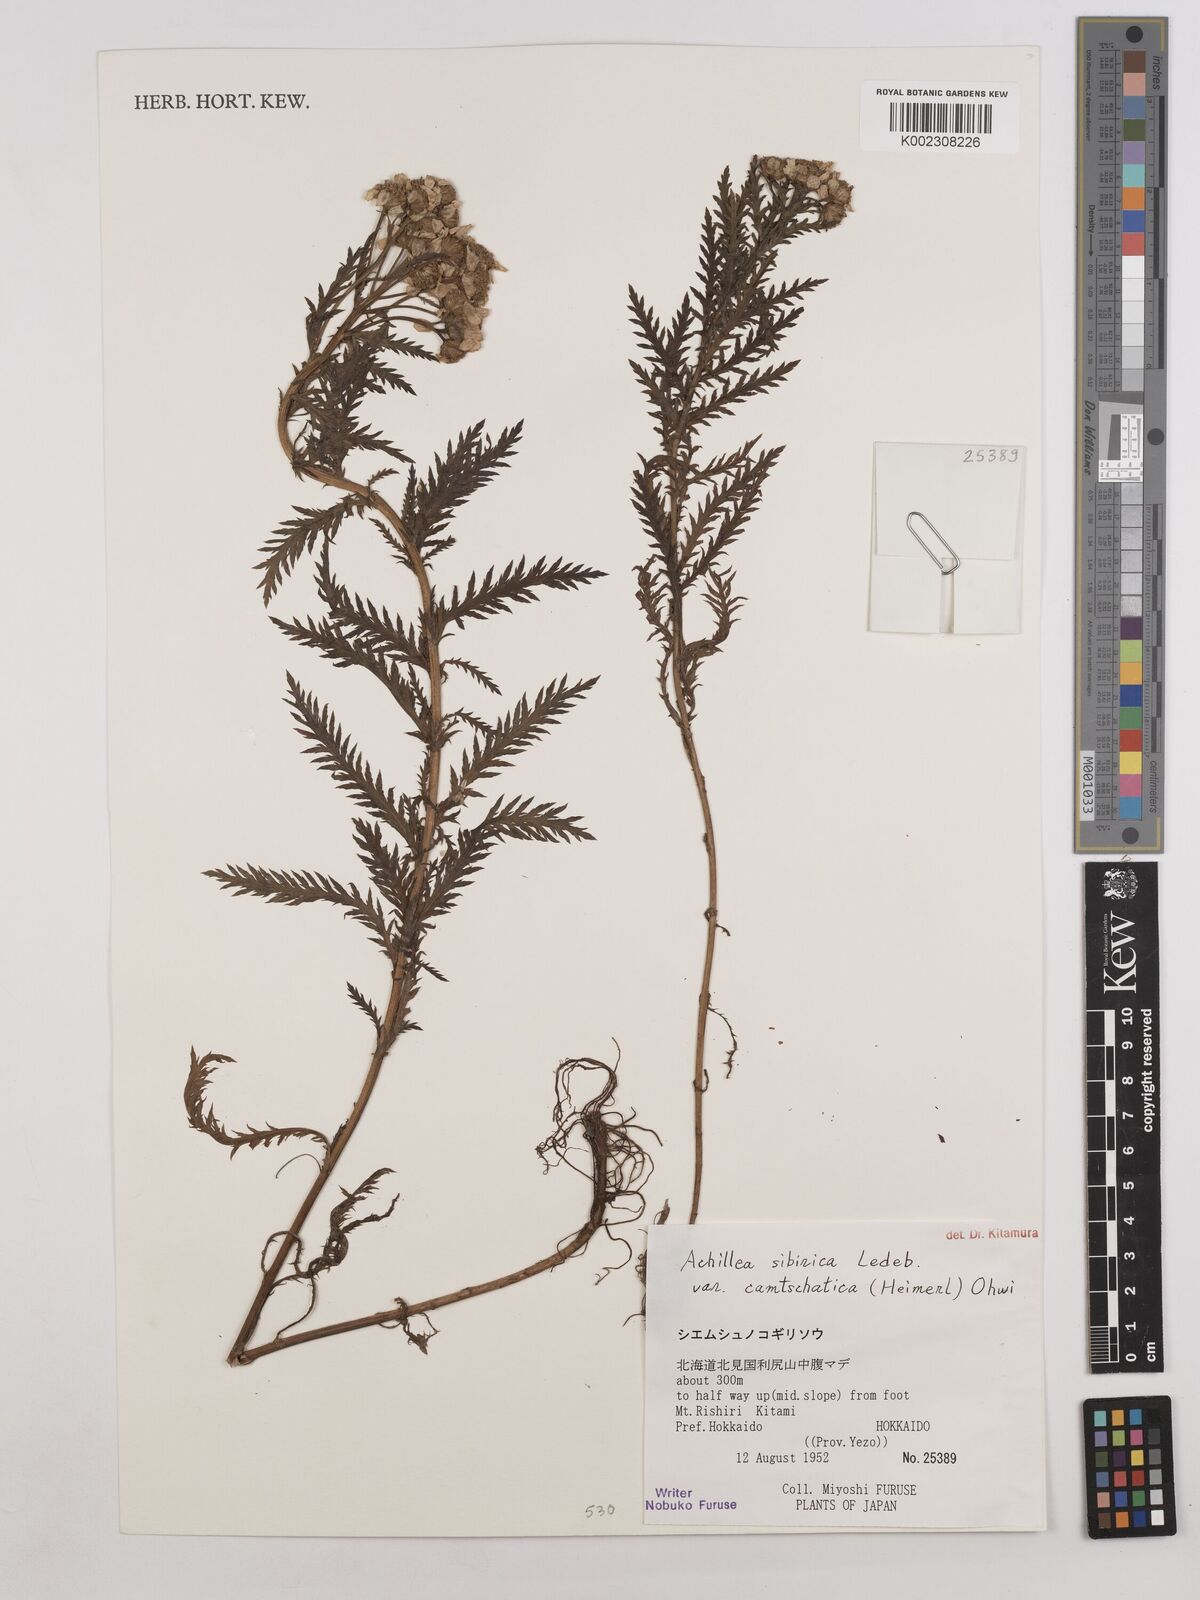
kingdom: Plantae
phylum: Tracheophyta
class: Magnoliopsida
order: Asterales
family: Asteraceae
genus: Achillea
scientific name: Achillea alpina
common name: Siberian yarrow
